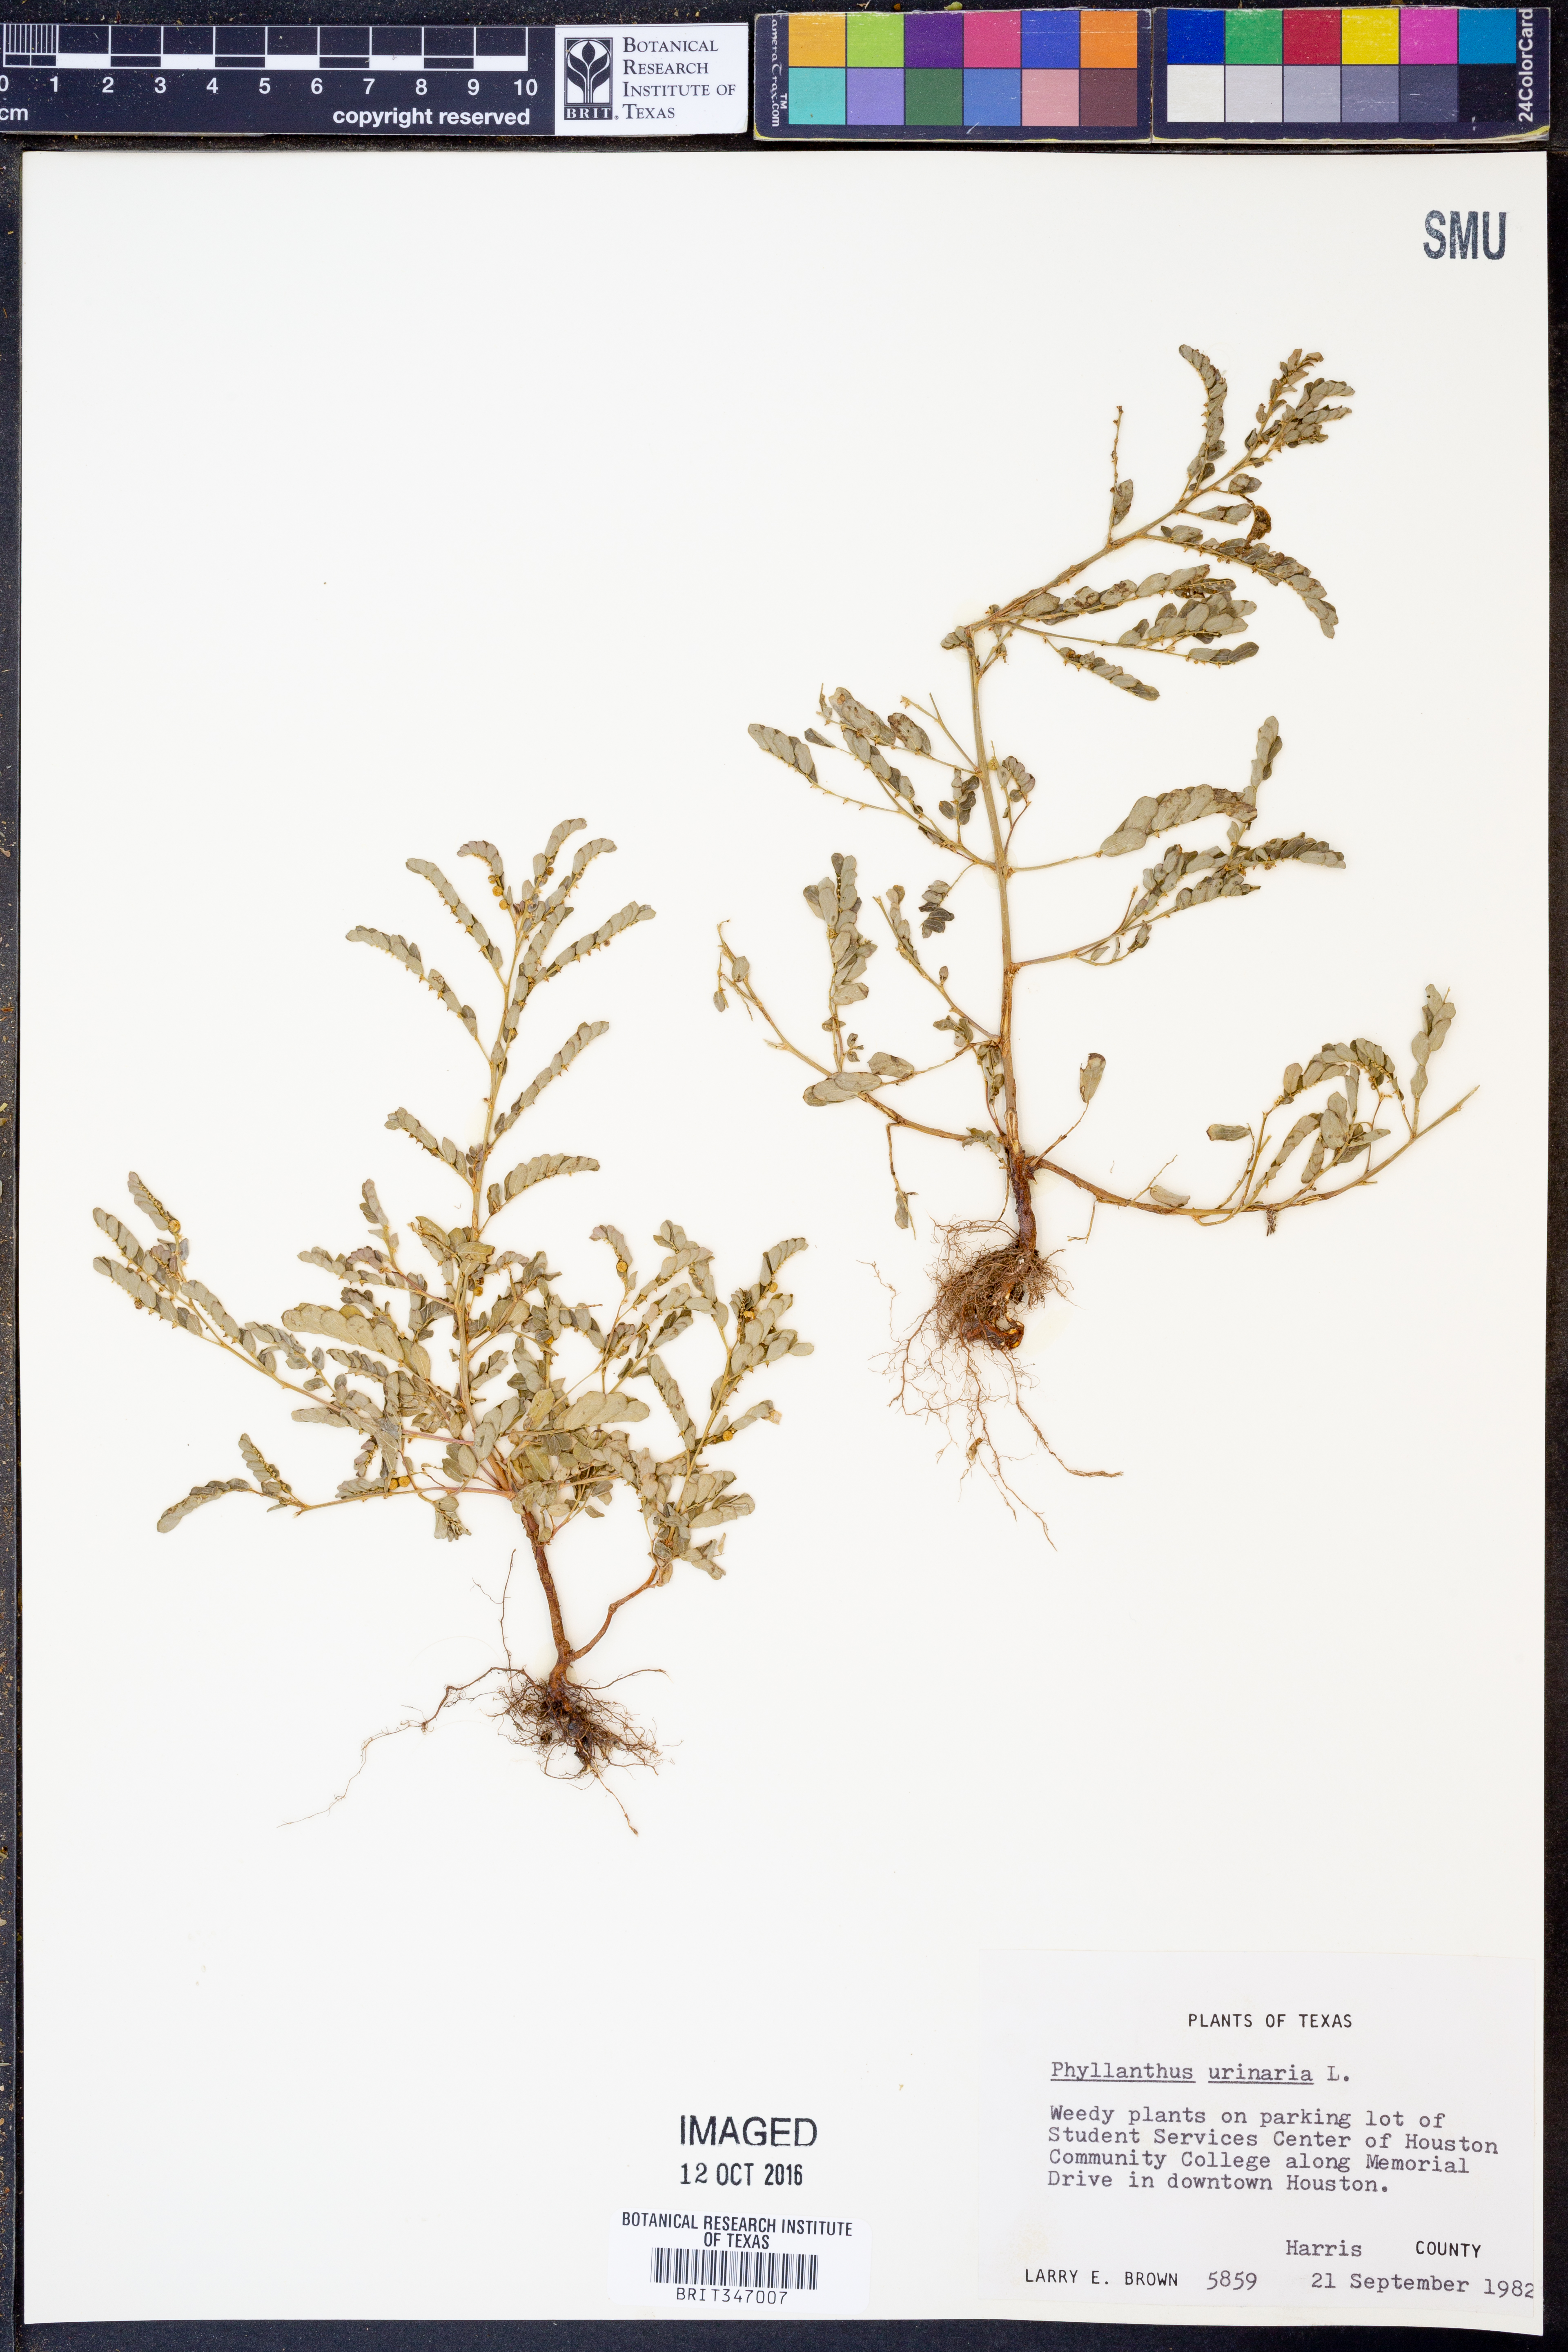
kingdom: Plantae
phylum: Tracheophyta
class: Magnoliopsida
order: Malpighiales
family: Phyllanthaceae
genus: Phyllanthus
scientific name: Phyllanthus urinaria
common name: Chamber bitter
